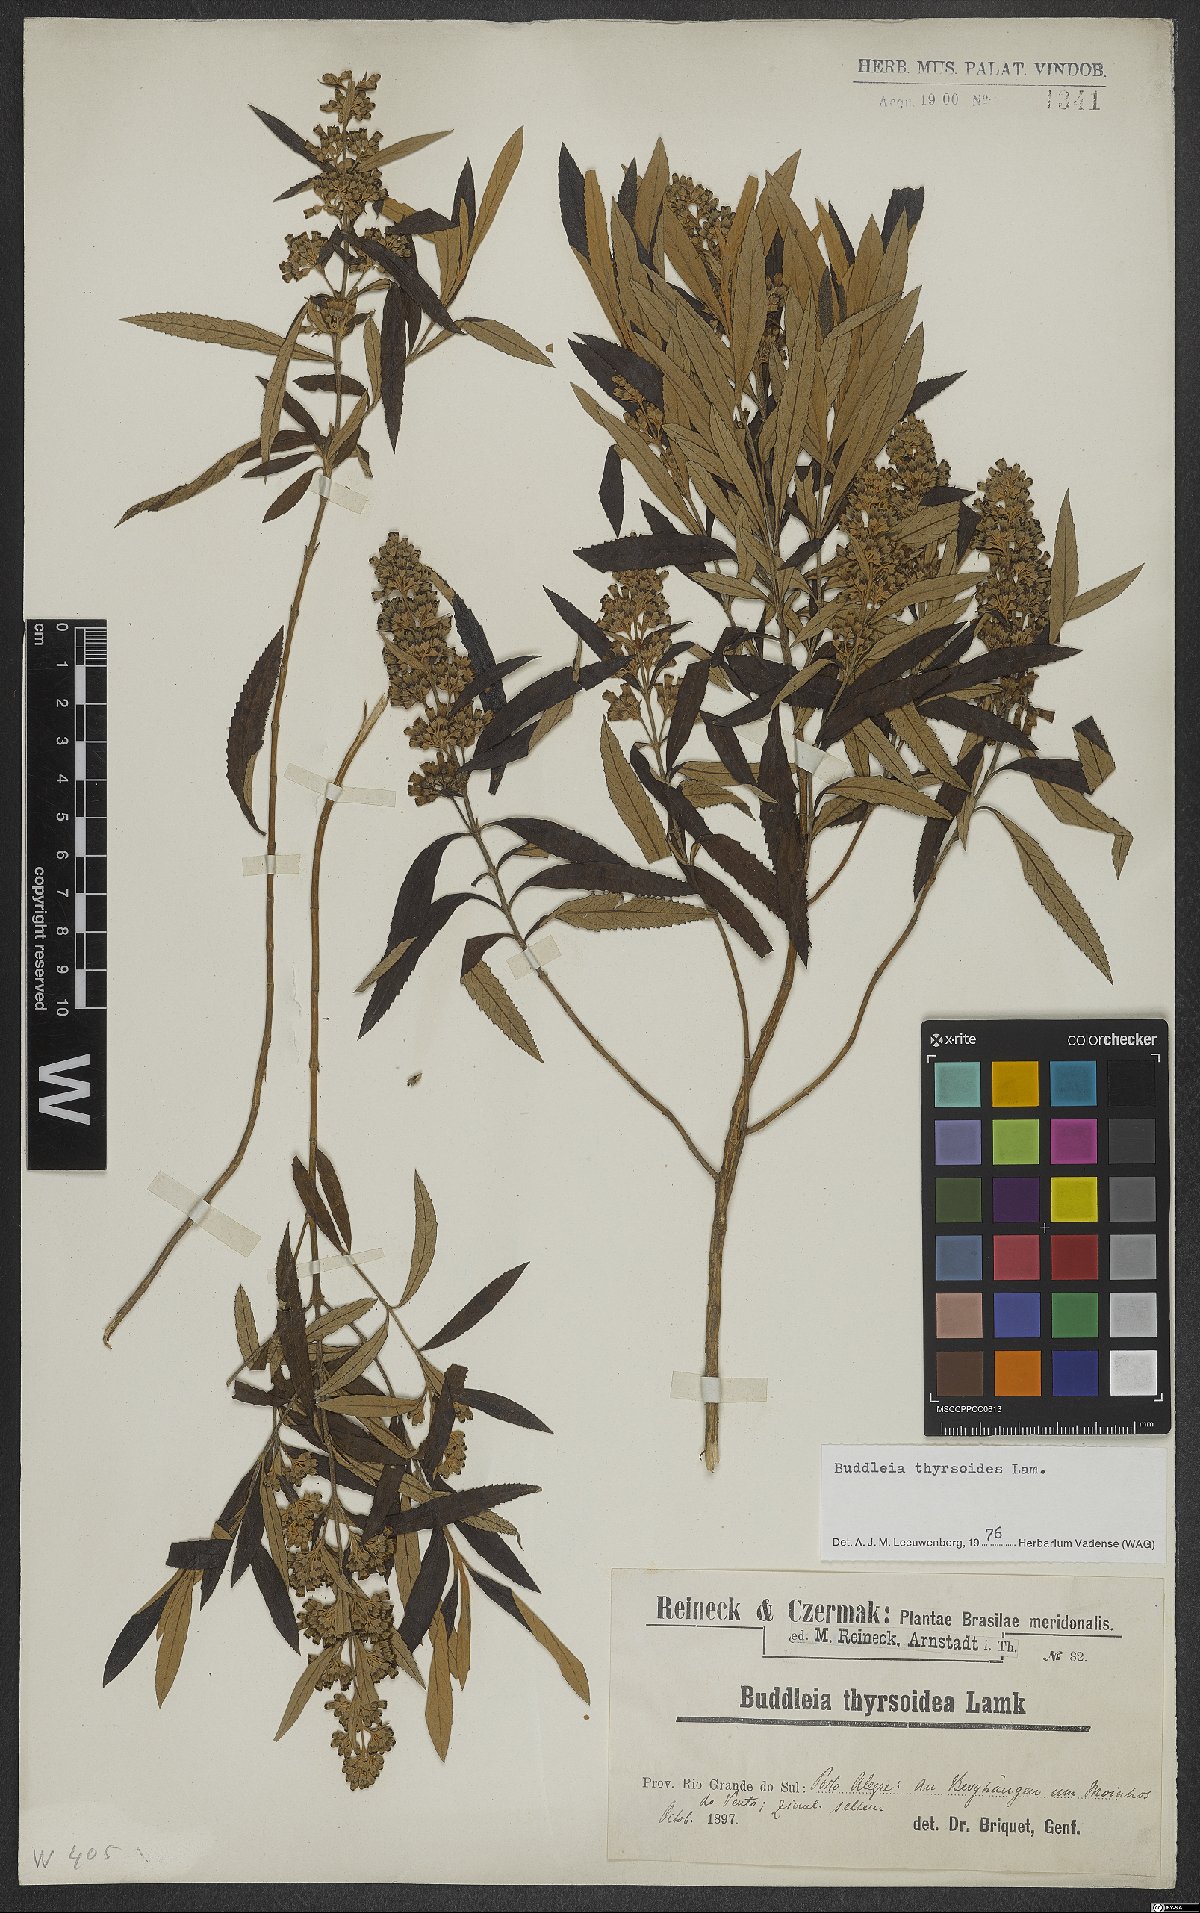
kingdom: Plantae
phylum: Tracheophyta
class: Magnoliopsida
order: Lamiales
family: Scrophulariaceae
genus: Buddleja
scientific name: Buddleja thyrsoides
